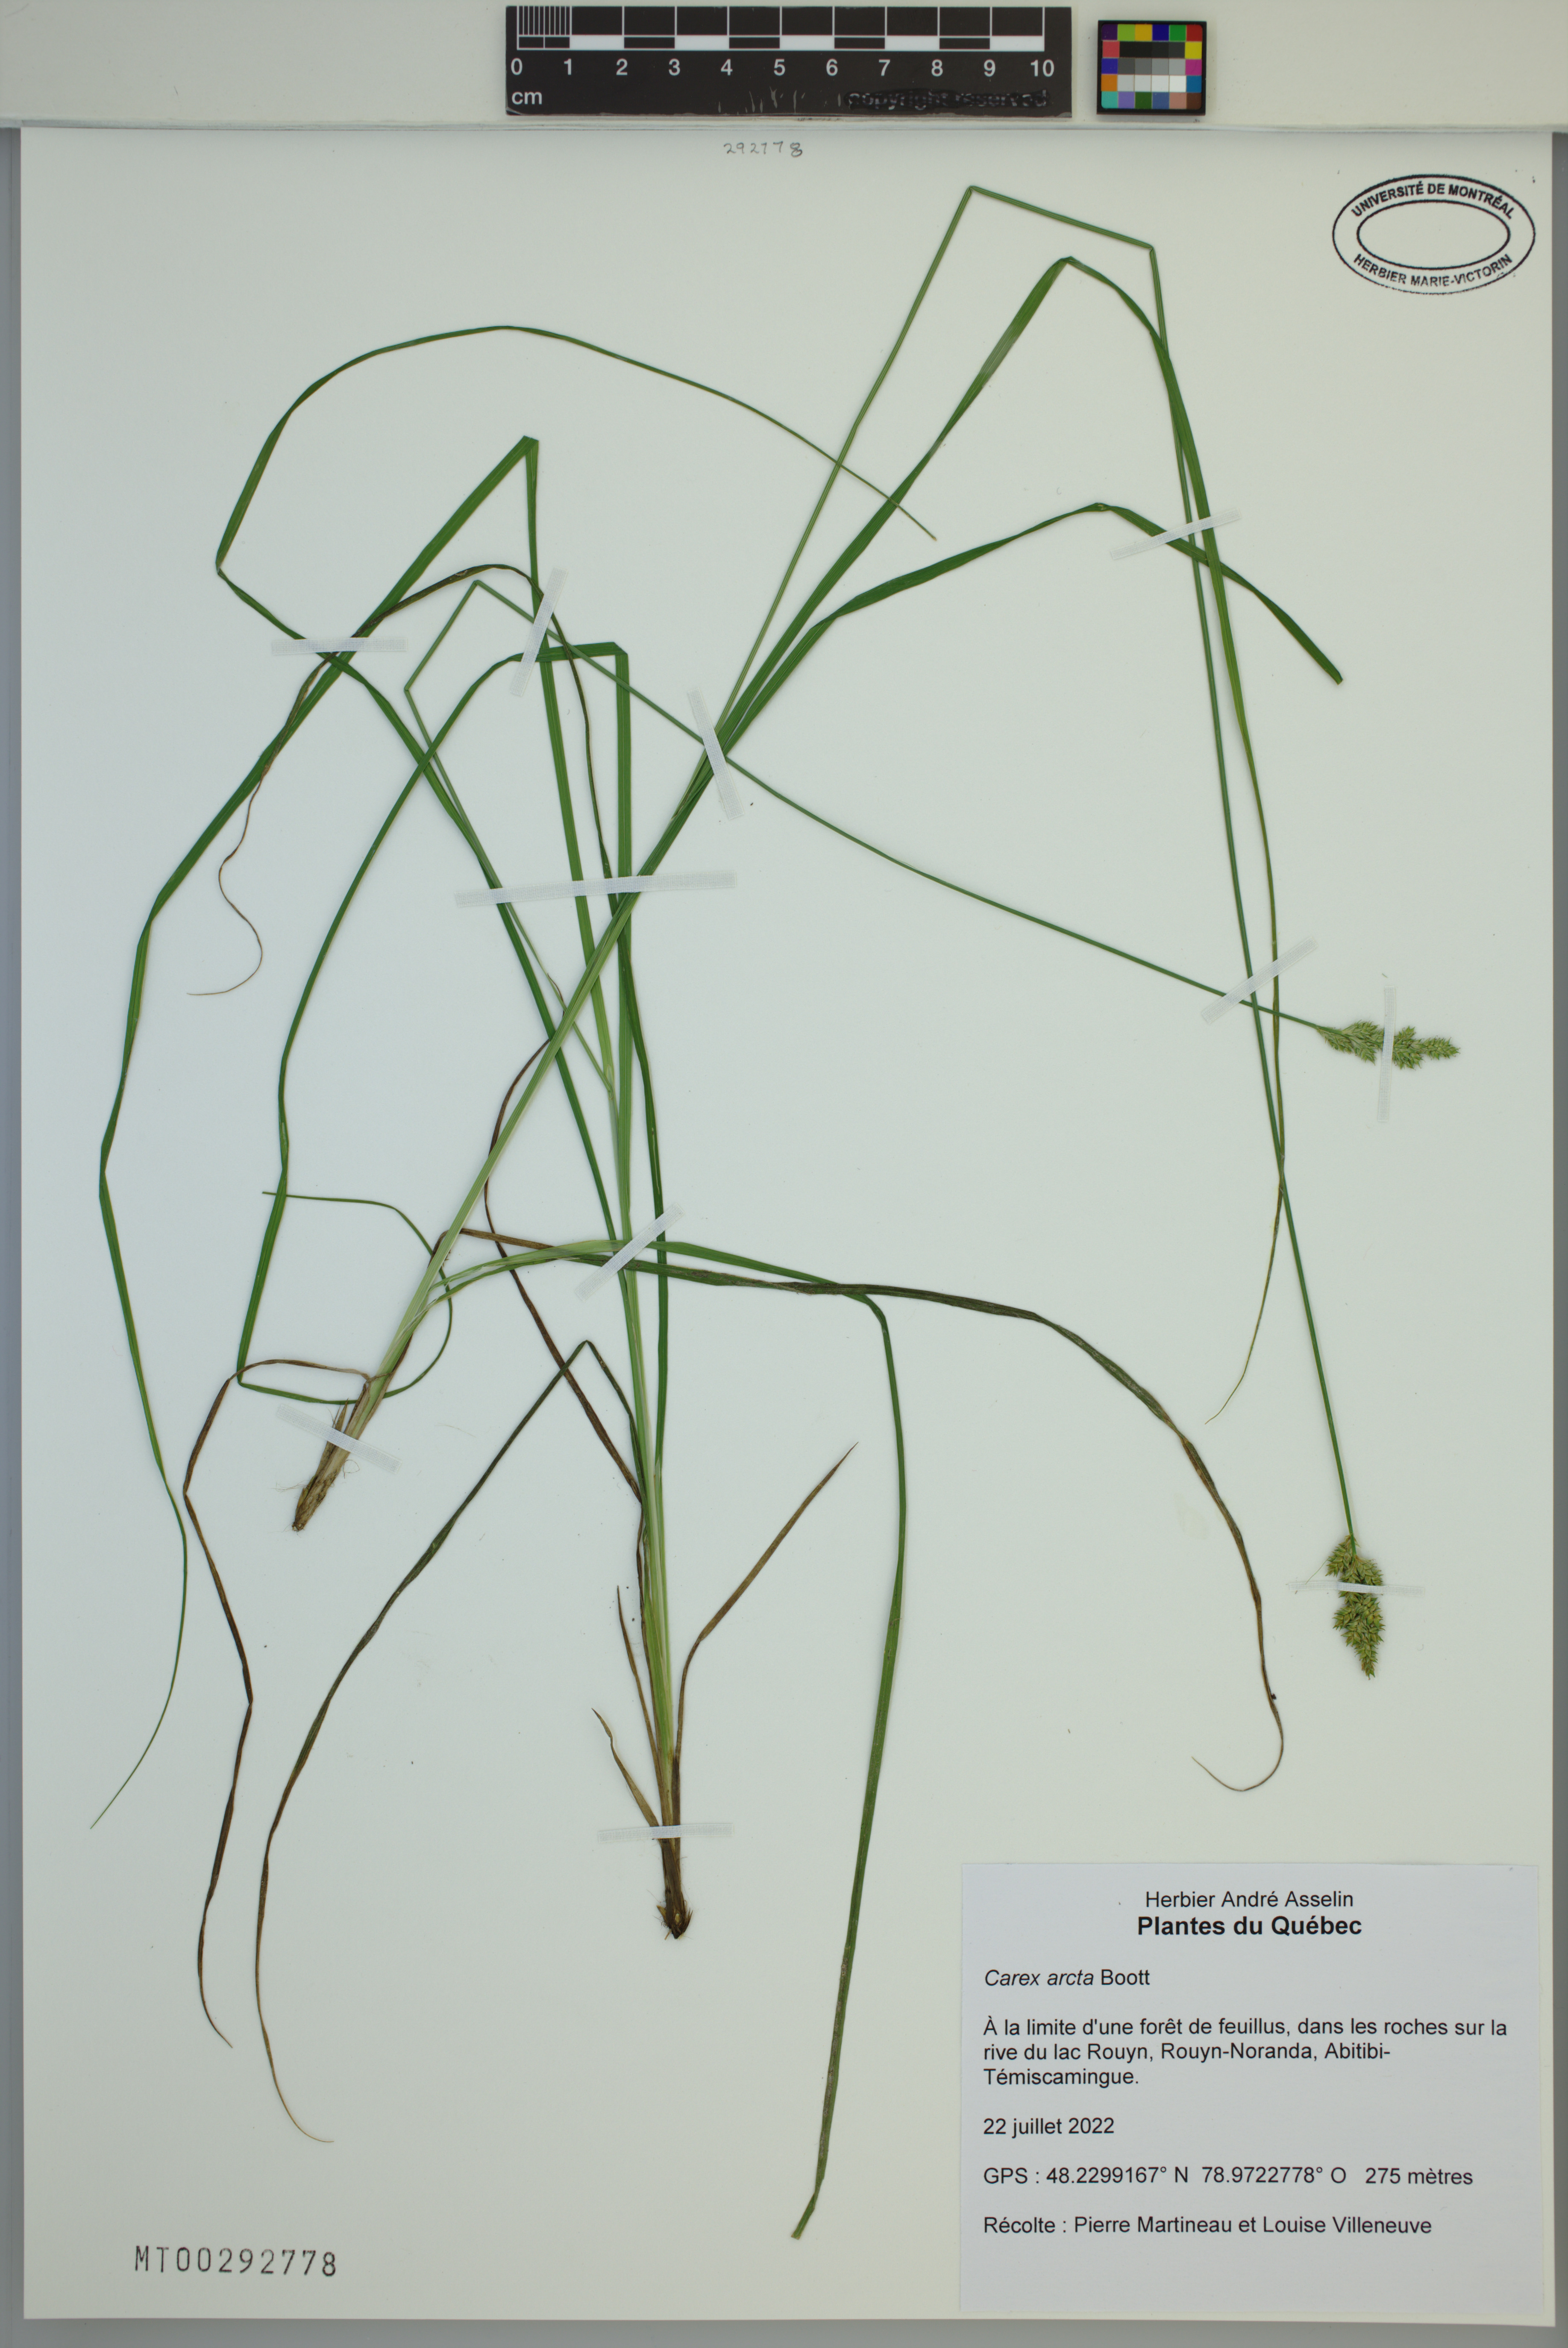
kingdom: Plantae
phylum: Tracheophyta
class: Liliopsida
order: Poales
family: Cyperaceae
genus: Carex
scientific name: Carex arcta
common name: Bear sedge
